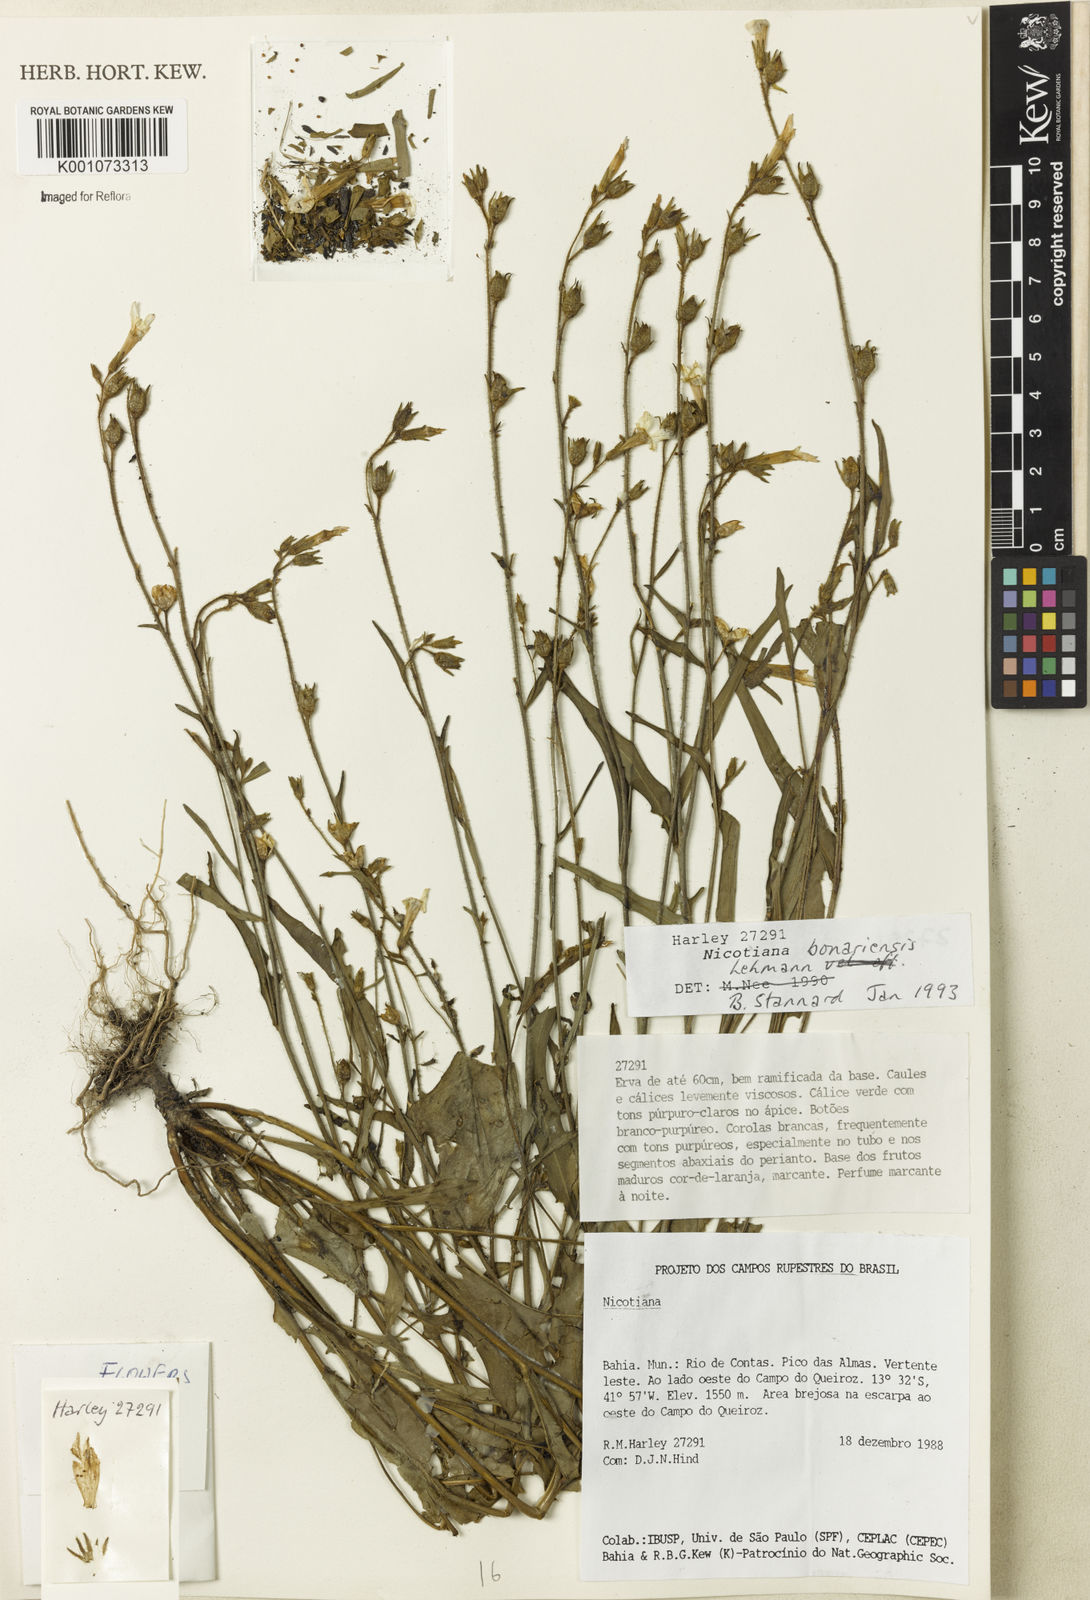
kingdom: Plantae
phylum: Tracheophyta
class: Magnoliopsida
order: Solanales
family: Solanaceae
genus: Nicotiana
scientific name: Nicotiana bonariensis
